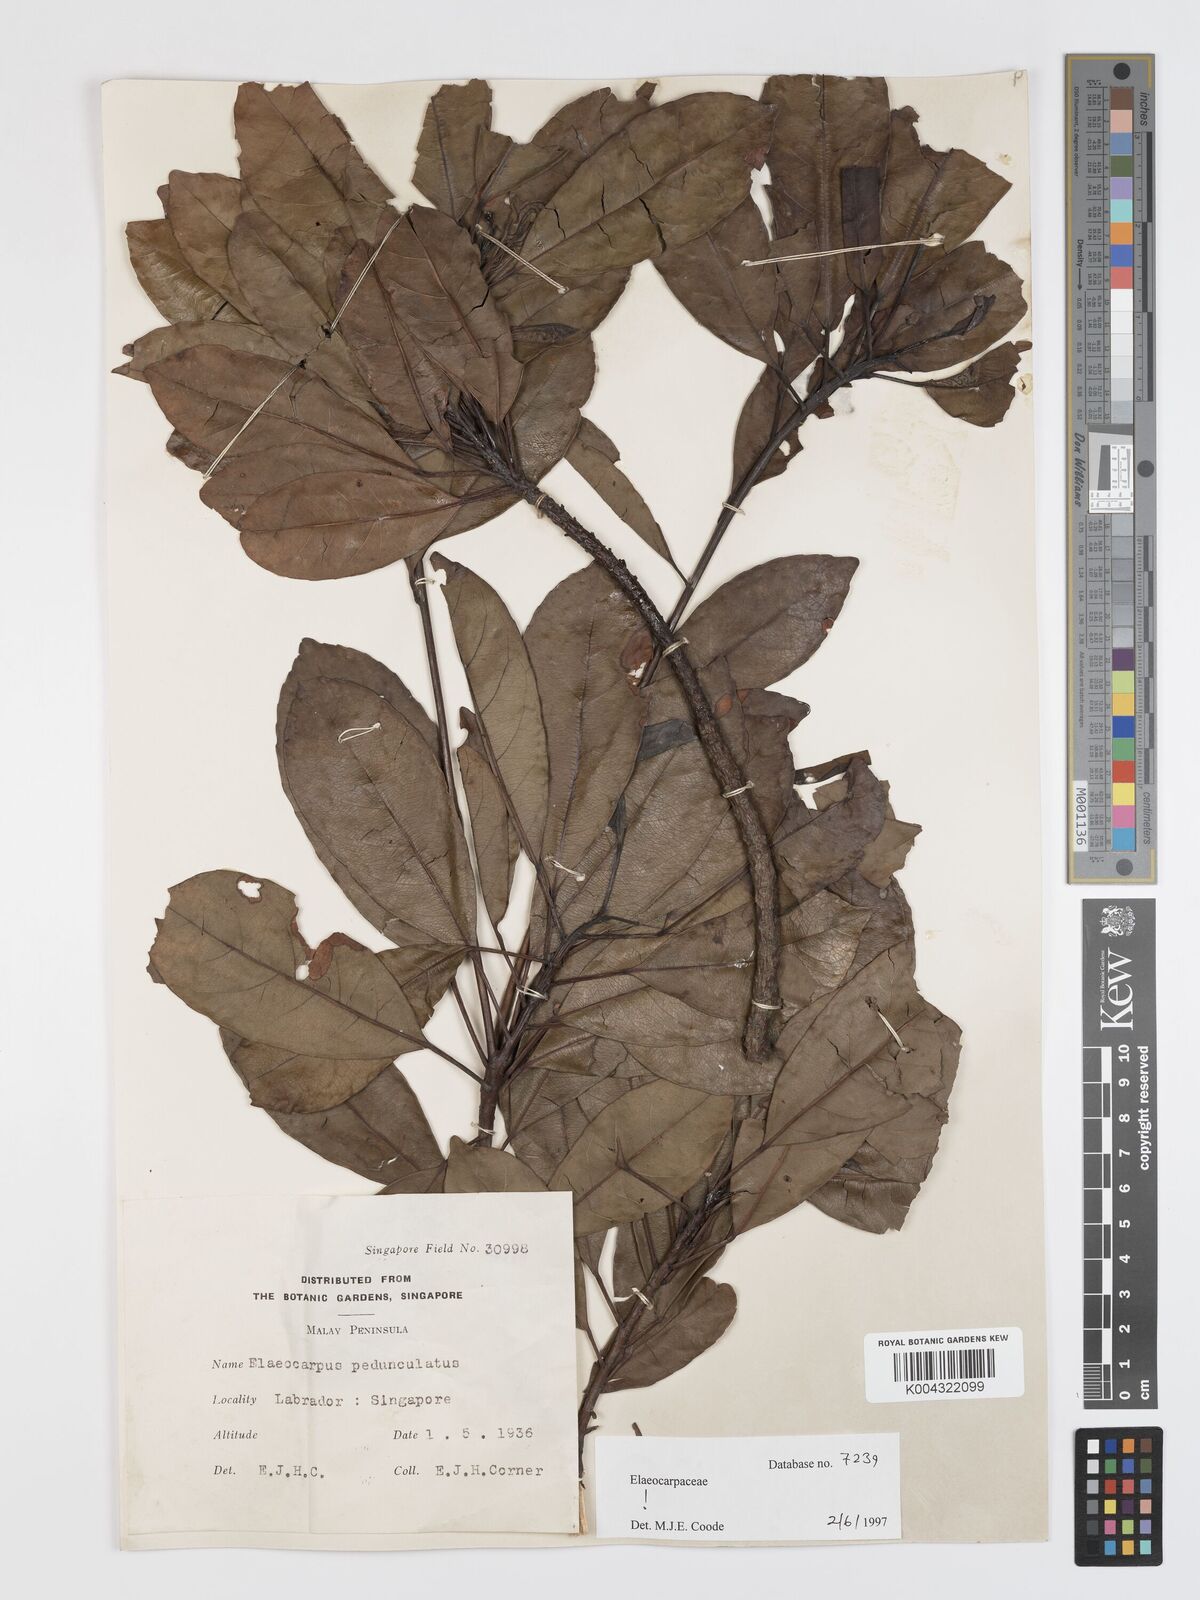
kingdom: Plantae
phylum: Tracheophyta
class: Magnoliopsida
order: Oxalidales
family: Elaeocarpaceae
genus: Elaeocarpus
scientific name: Elaeocarpus pedunculatus
